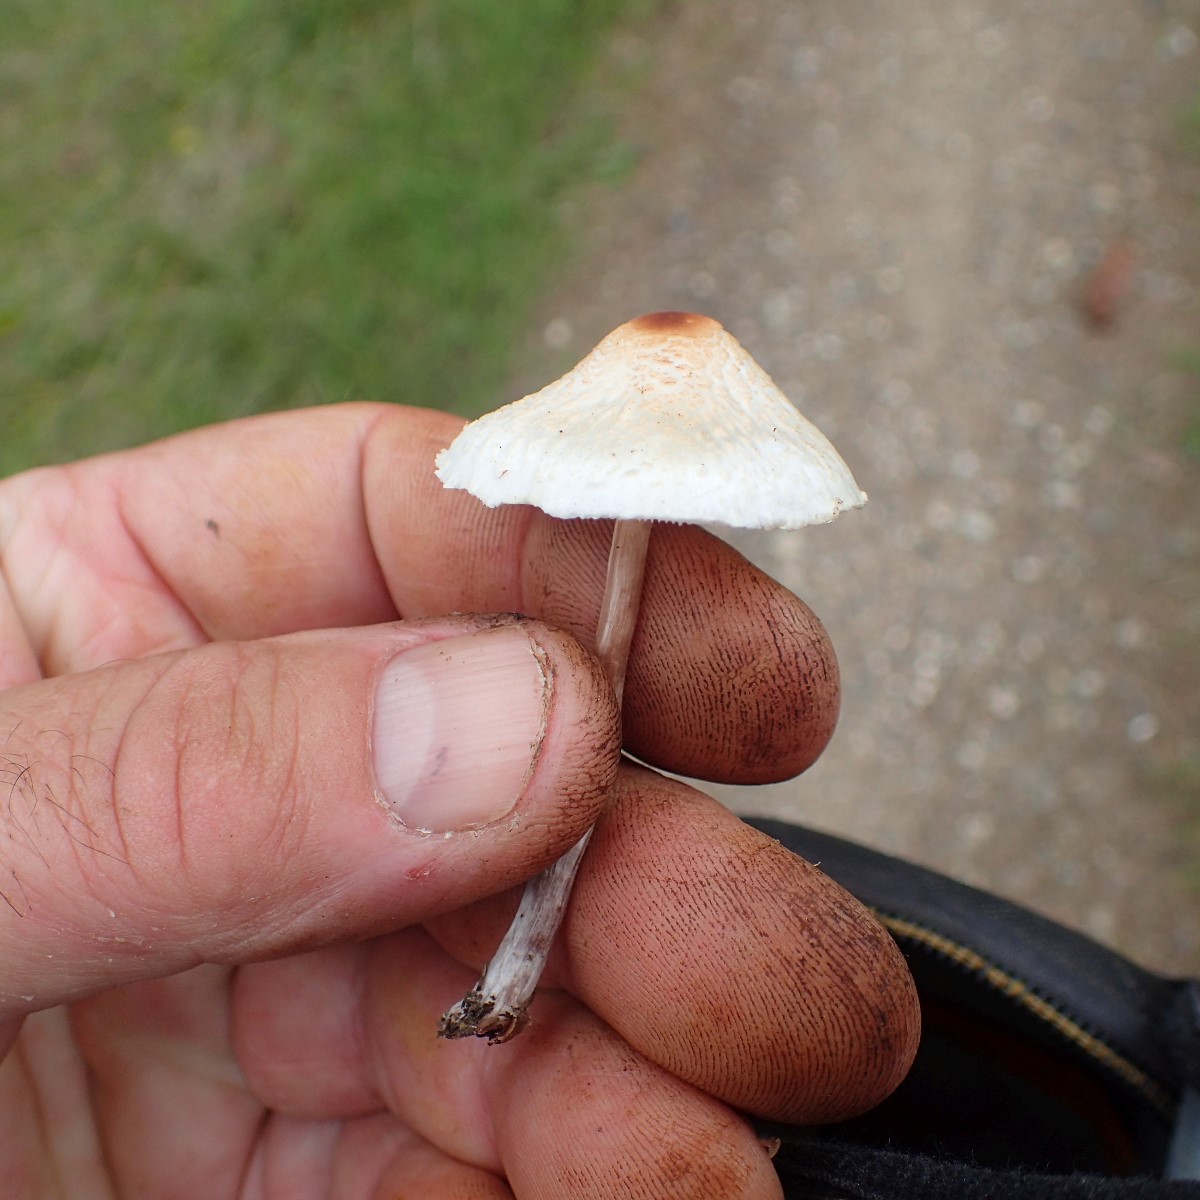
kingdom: Fungi
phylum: Basidiomycota
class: Agaricomycetes
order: Agaricales
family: Agaricaceae
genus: Lepiota
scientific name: Lepiota cristata
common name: stinkende parasolhat
